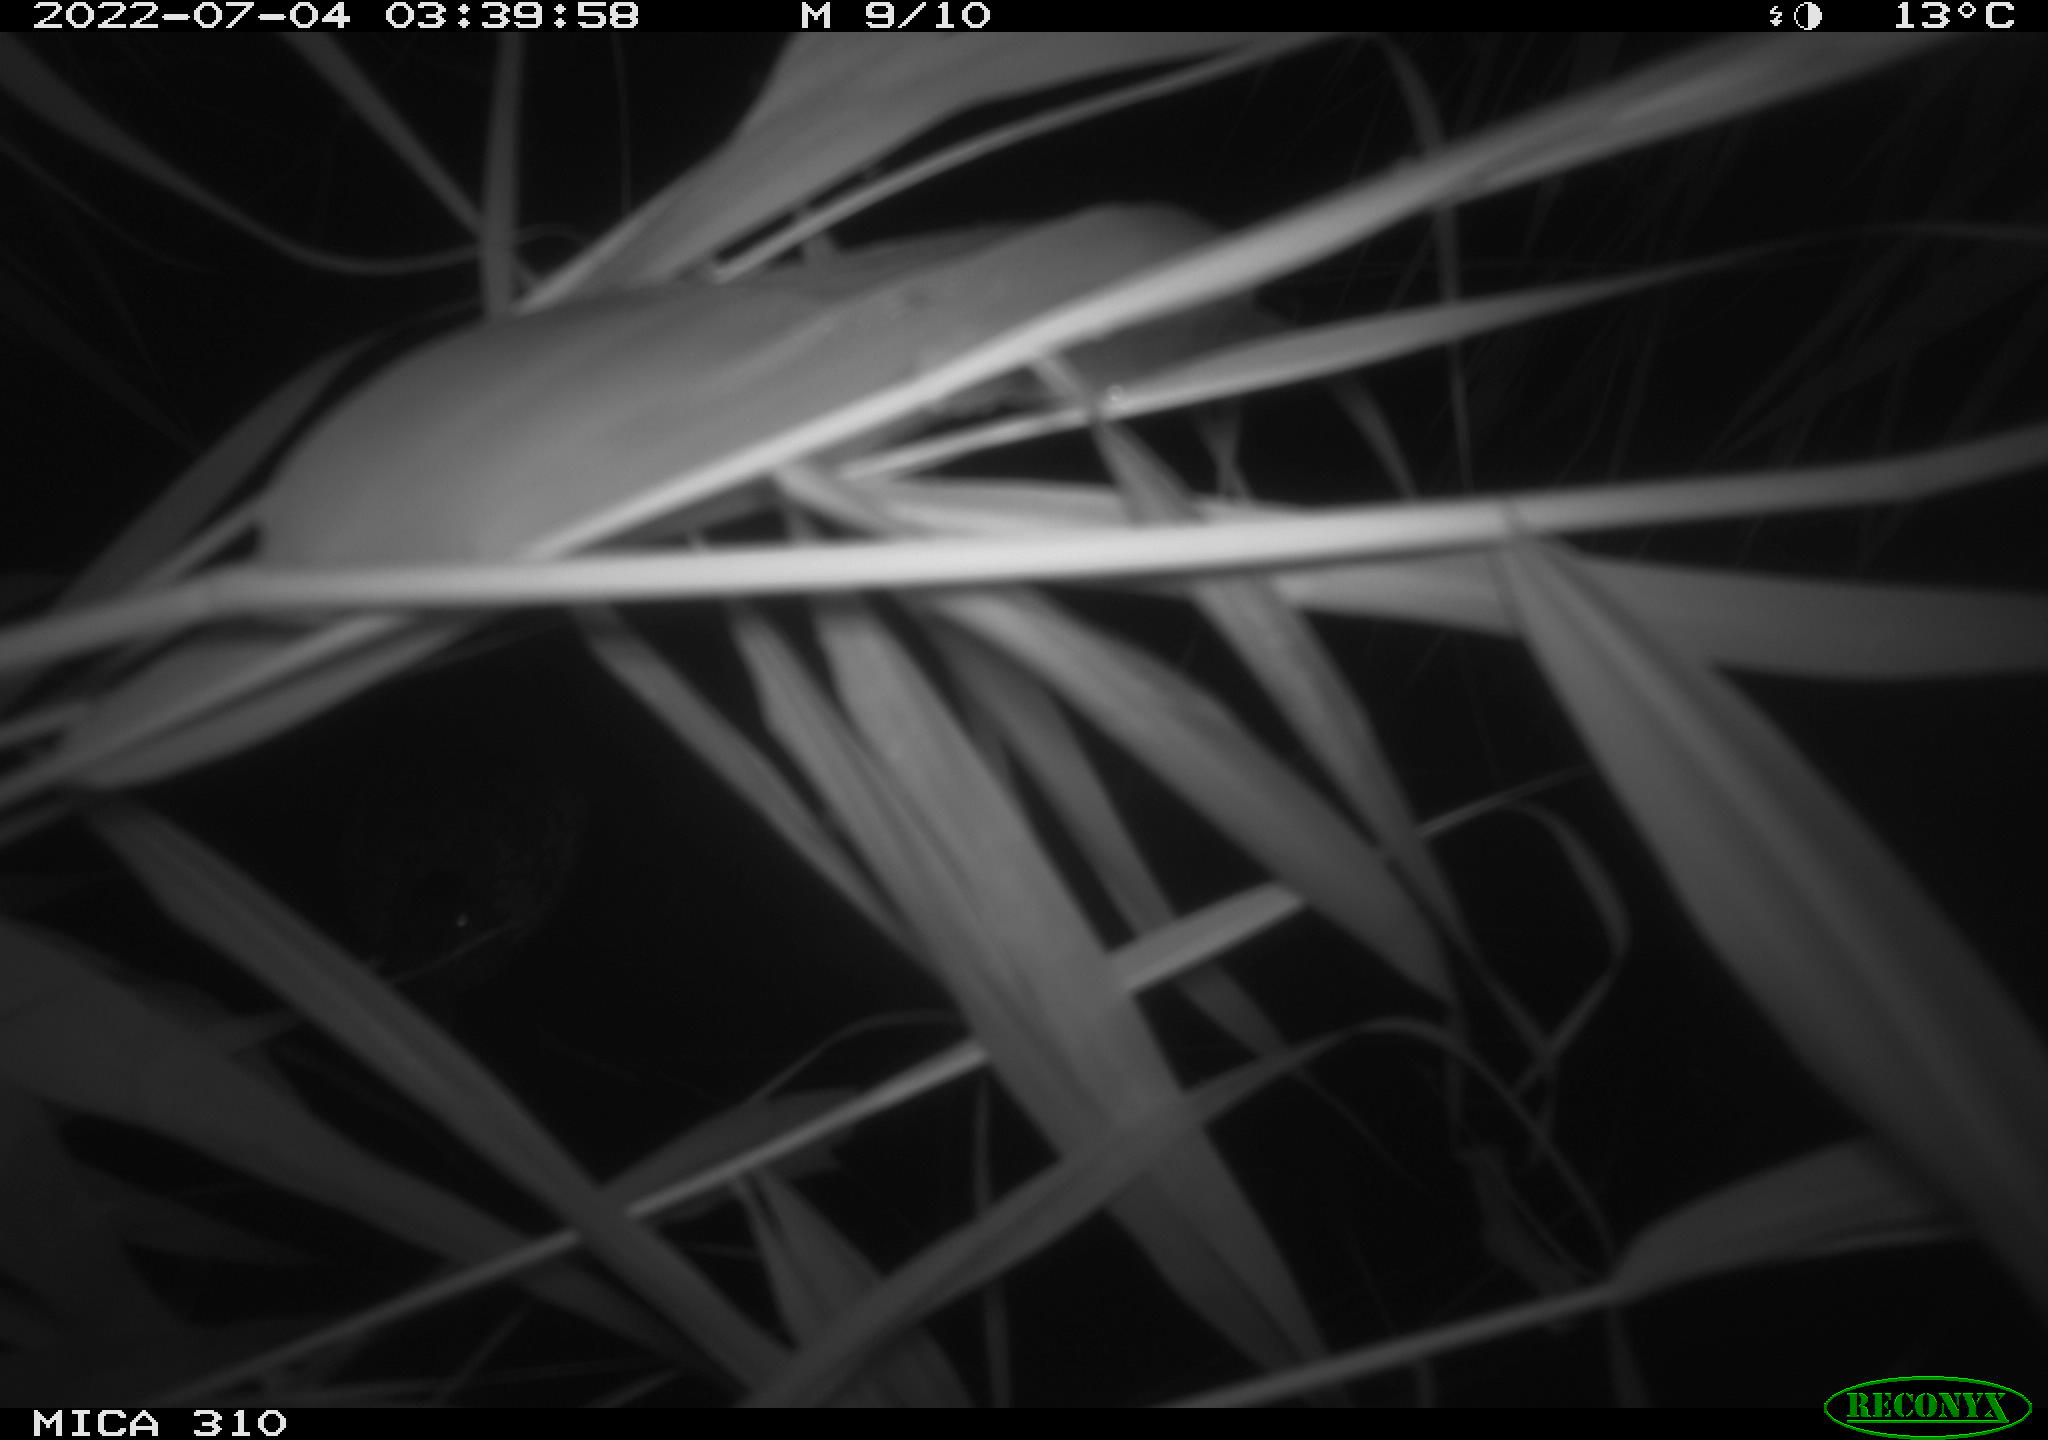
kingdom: Animalia
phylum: Chordata
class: Aves
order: Anseriformes
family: Anatidae
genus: Anas
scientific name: Anas platyrhynchos
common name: Mallard
